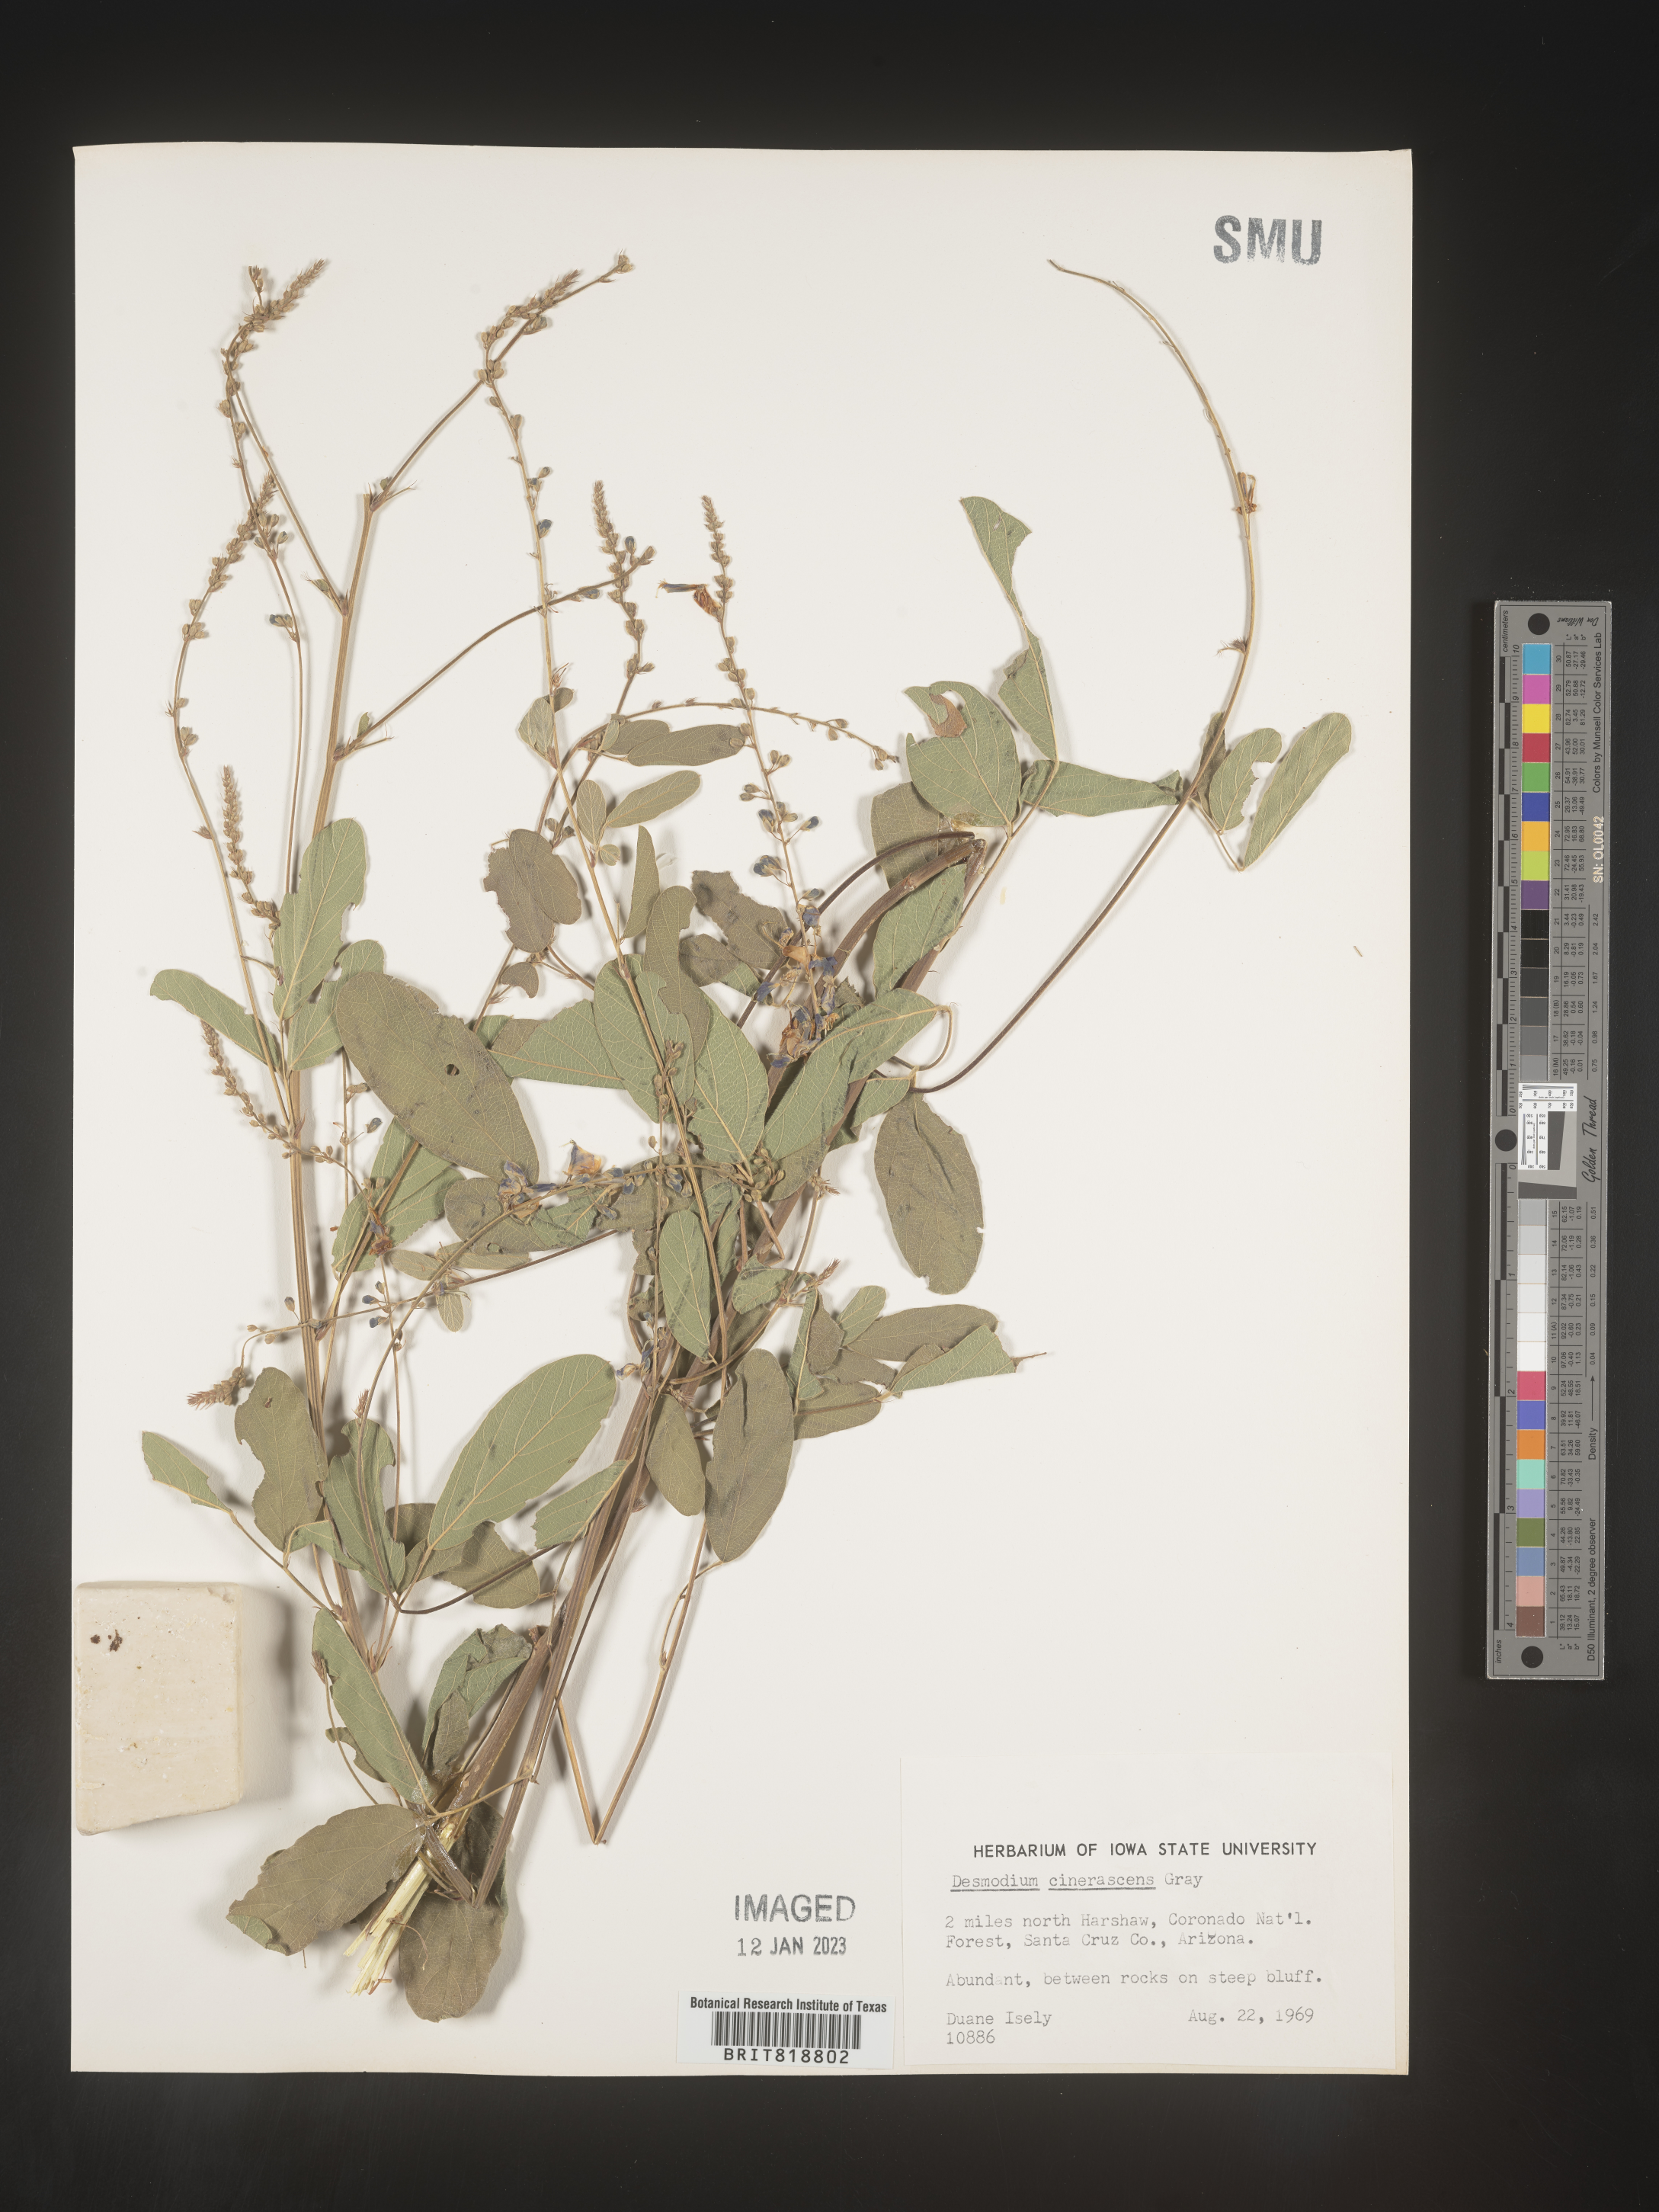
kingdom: Plantae
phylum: Tracheophyta
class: Magnoliopsida
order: Fabales
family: Fabaceae
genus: Desmodium
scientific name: Desmodium cinerascens
